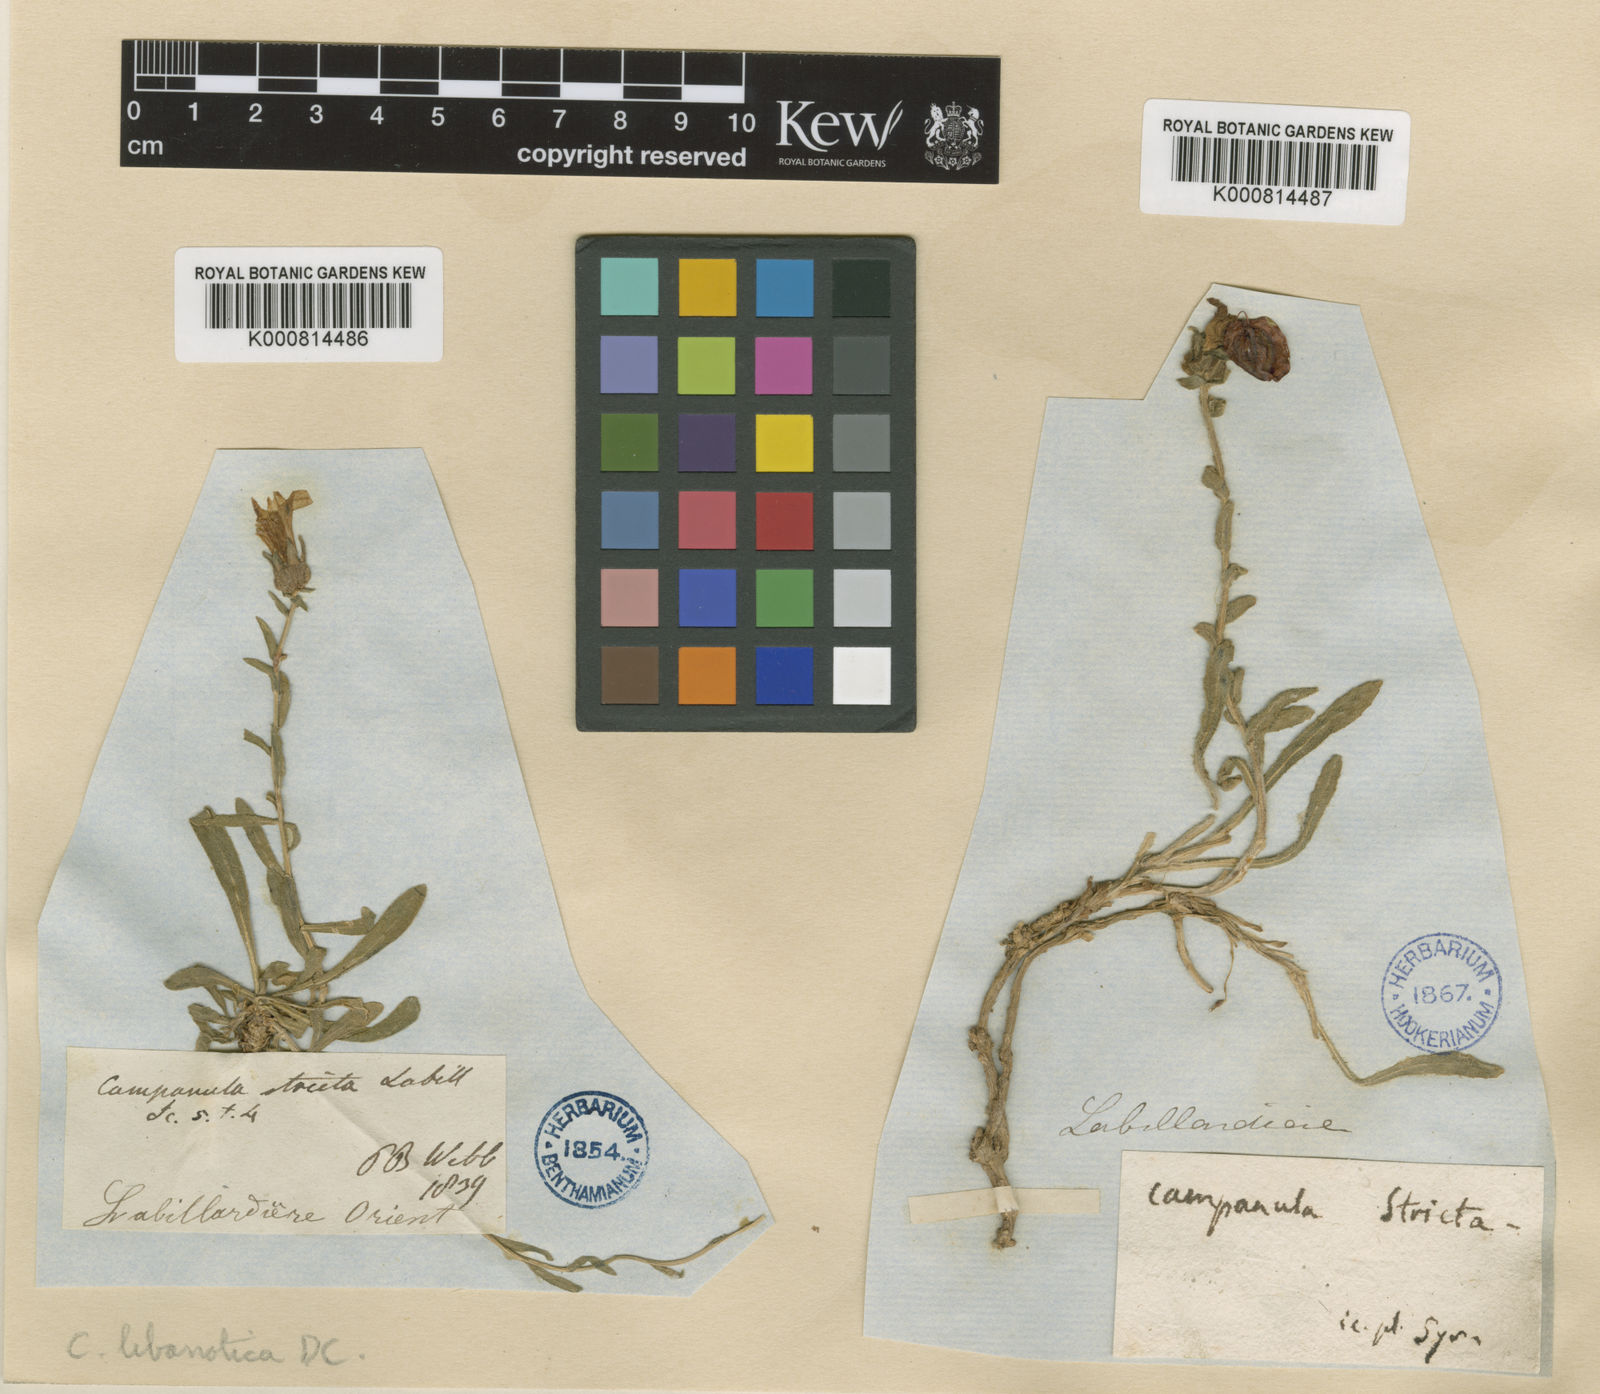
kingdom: Plantae
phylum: Tracheophyta
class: Magnoliopsida
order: Asterales
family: Campanulaceae
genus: Campanula
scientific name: Campanula
